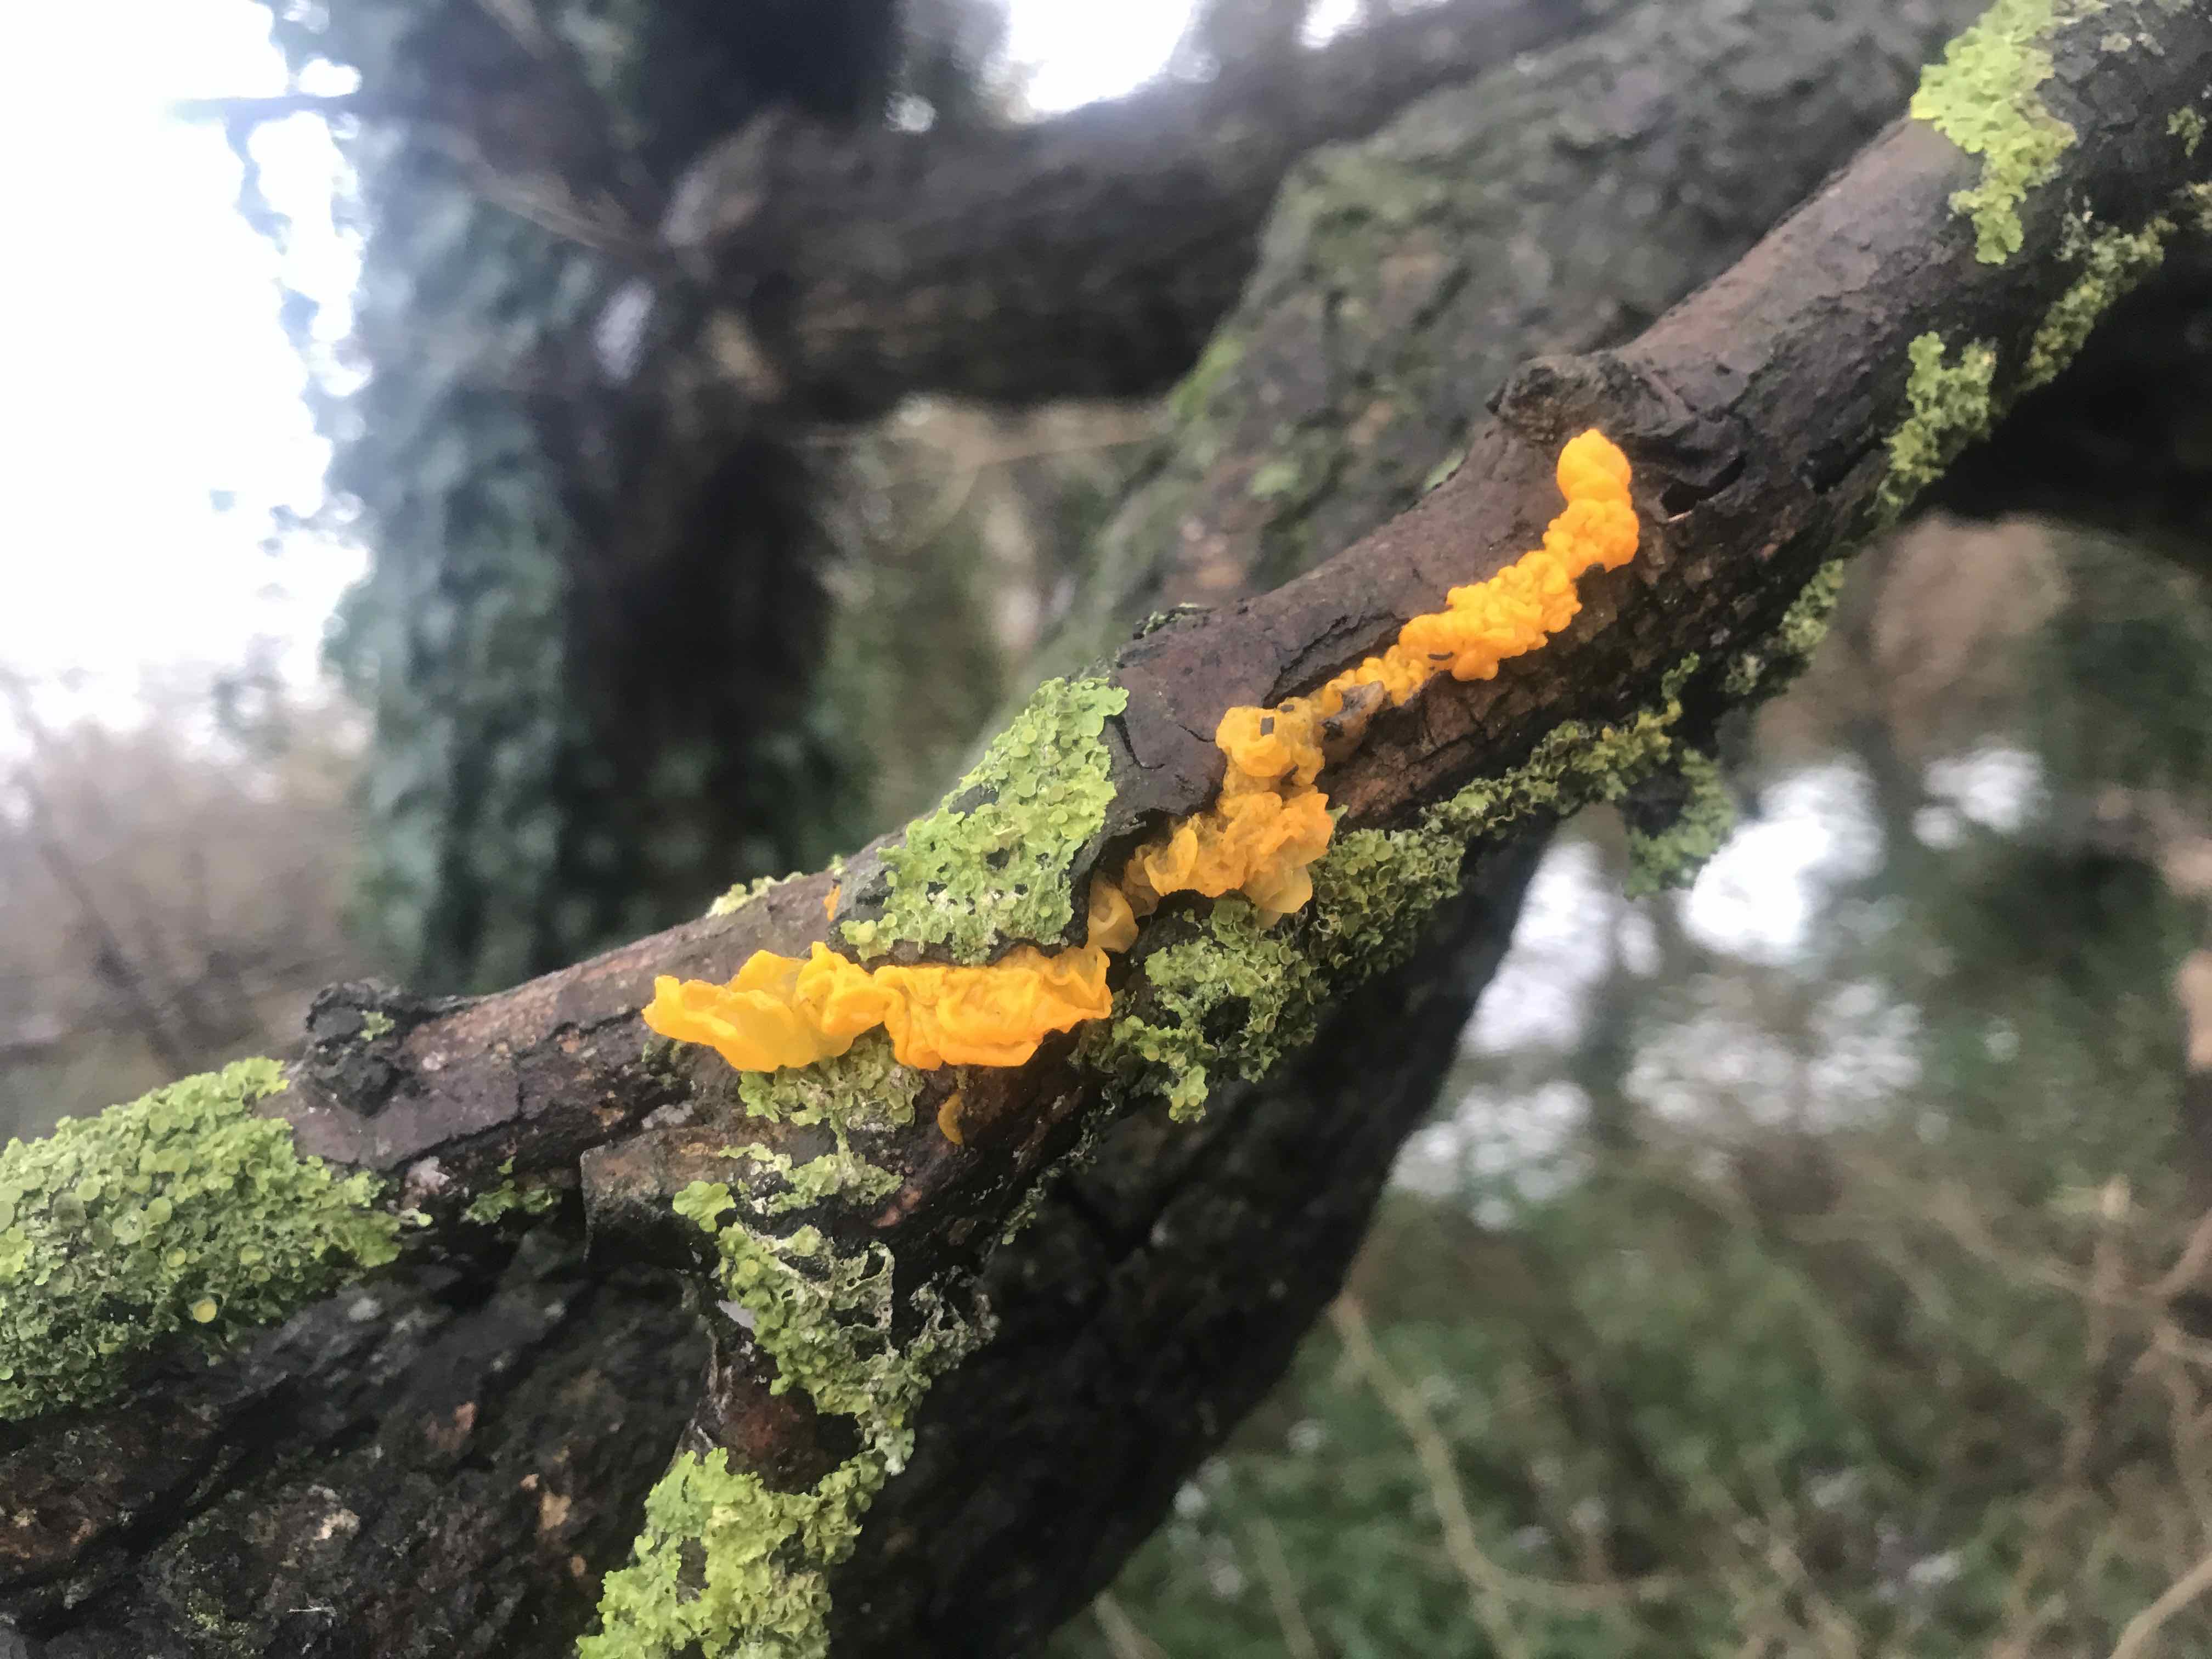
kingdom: Fungi
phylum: Basidiomycota
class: Tremellomycetes
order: Tremellales
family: Tremellaceae
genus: Tremella
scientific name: Tremella mesenterica
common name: gul bævresvamp
